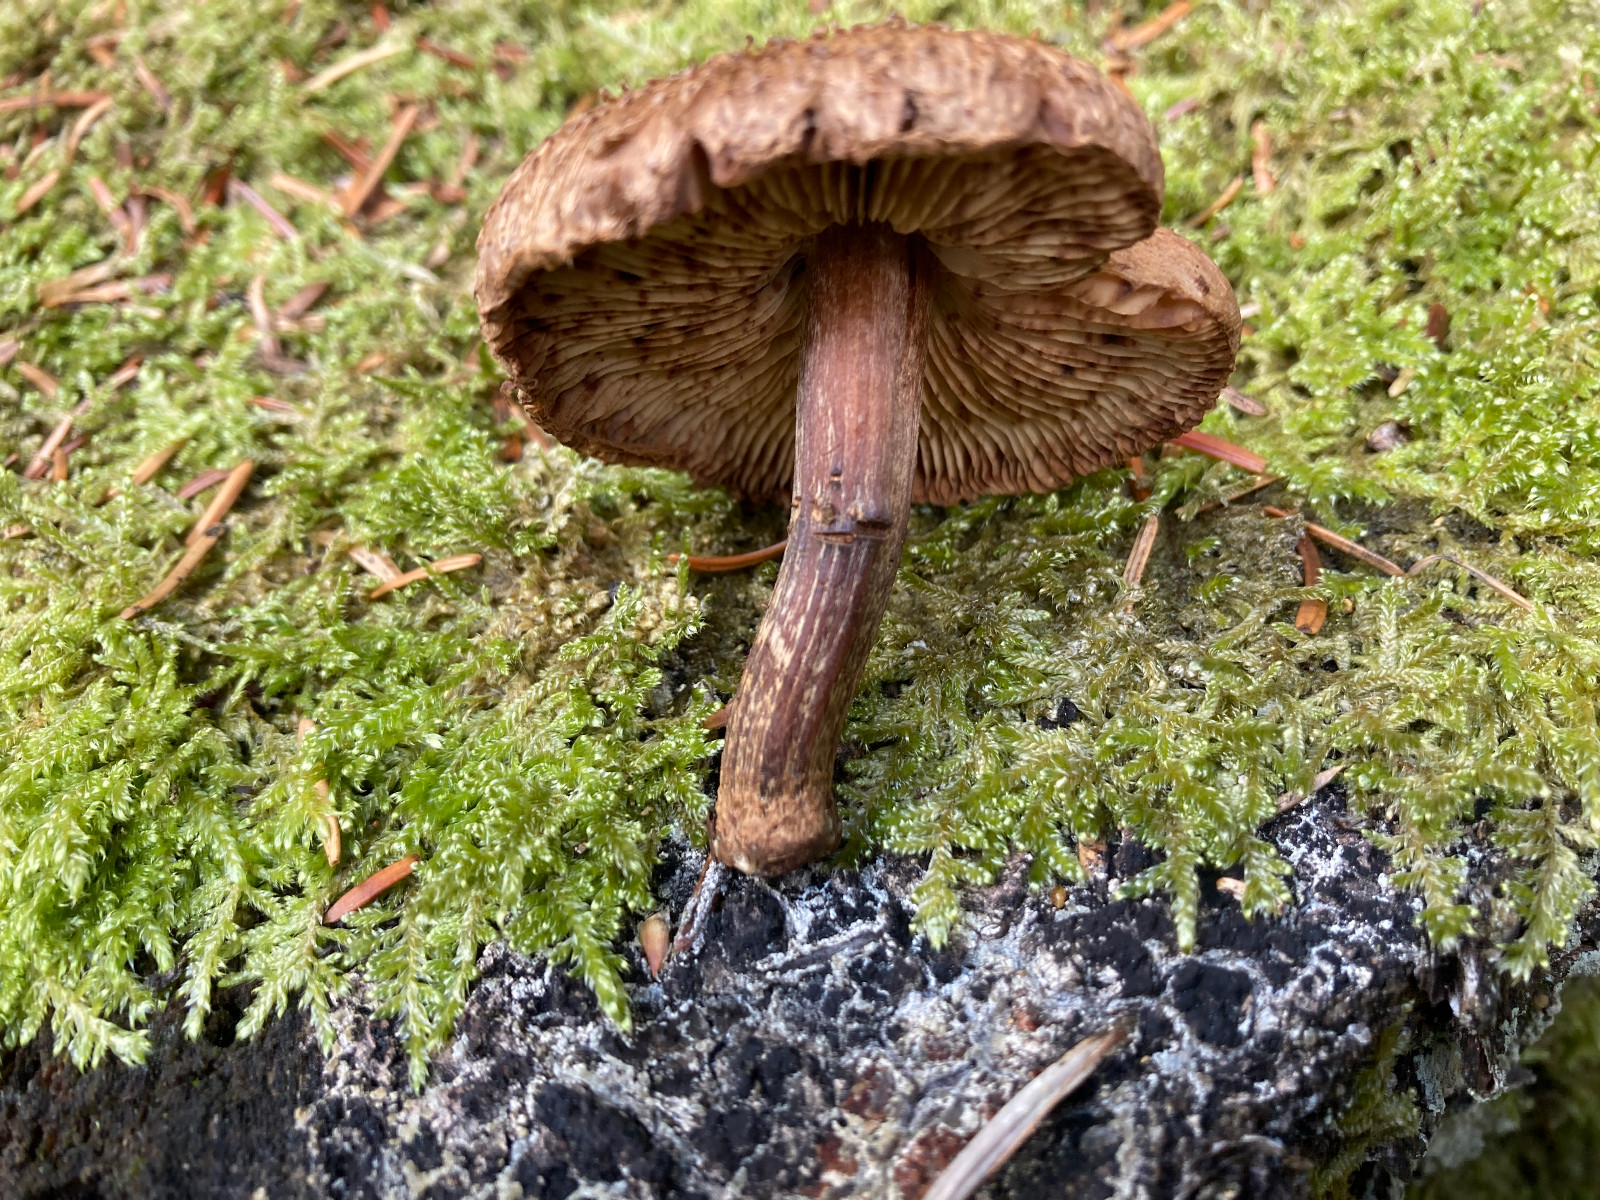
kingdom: Fungi
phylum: Basidiomycota
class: Agaricomycetes
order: Agaricales
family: Inocybaceae
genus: Inocybe
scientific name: Inocybe
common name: trævlhat
